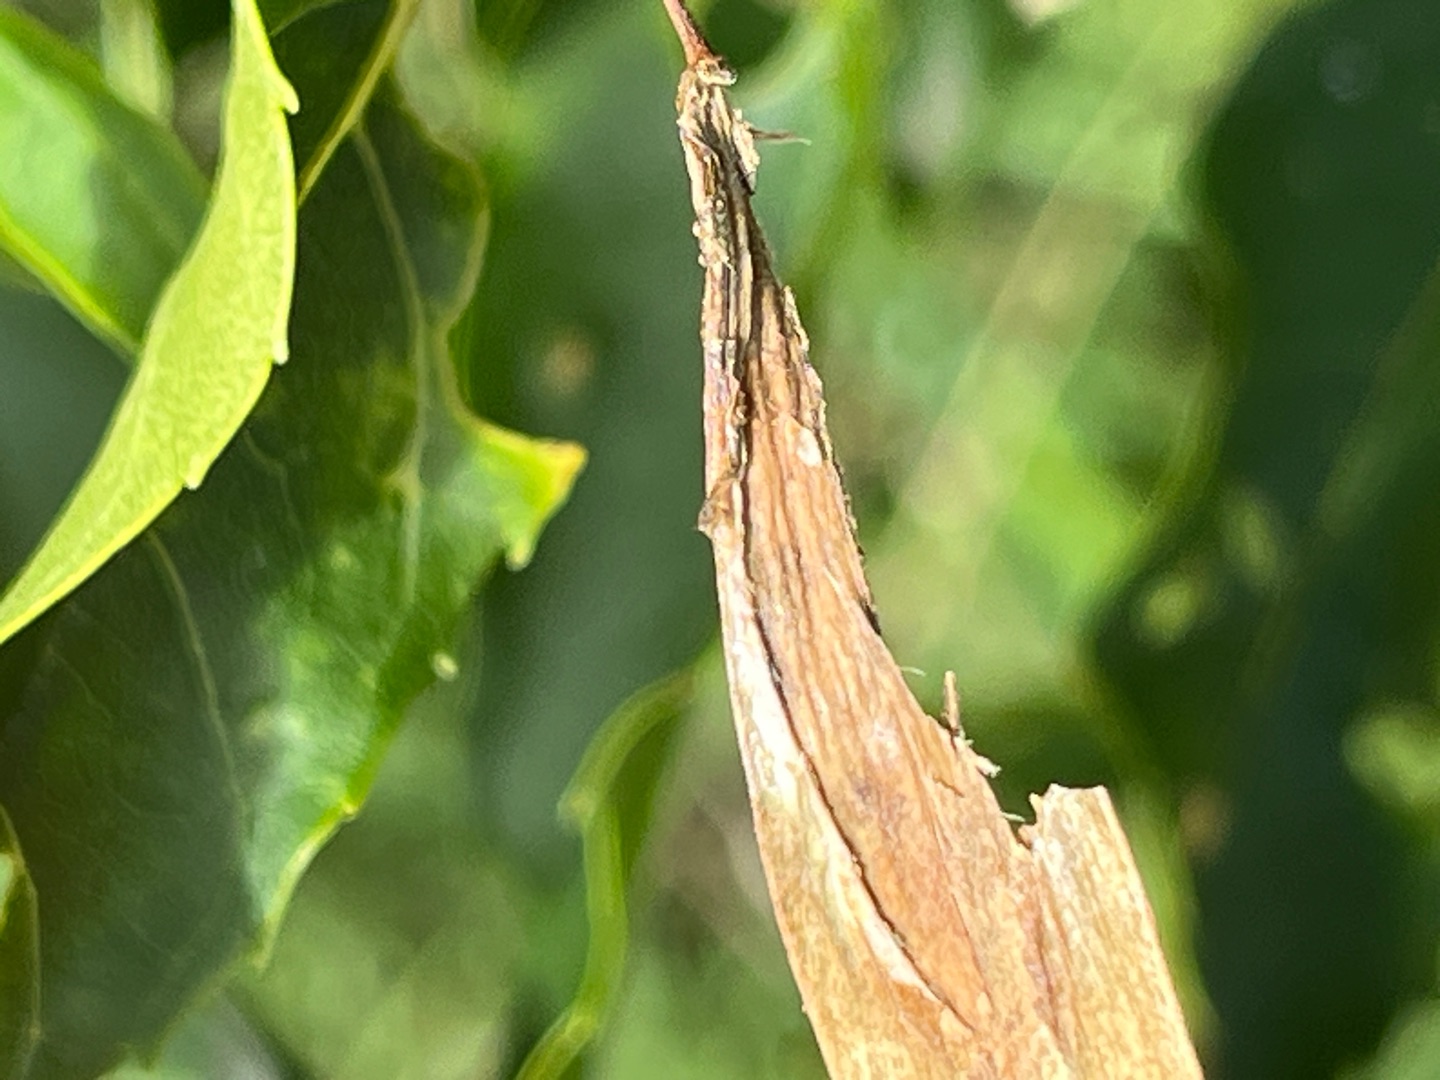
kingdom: Animalia
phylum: Arthropoda
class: Insecta
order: Diptera
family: Cecidomyiidae
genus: Contarinia
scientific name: Contarinia marchali
